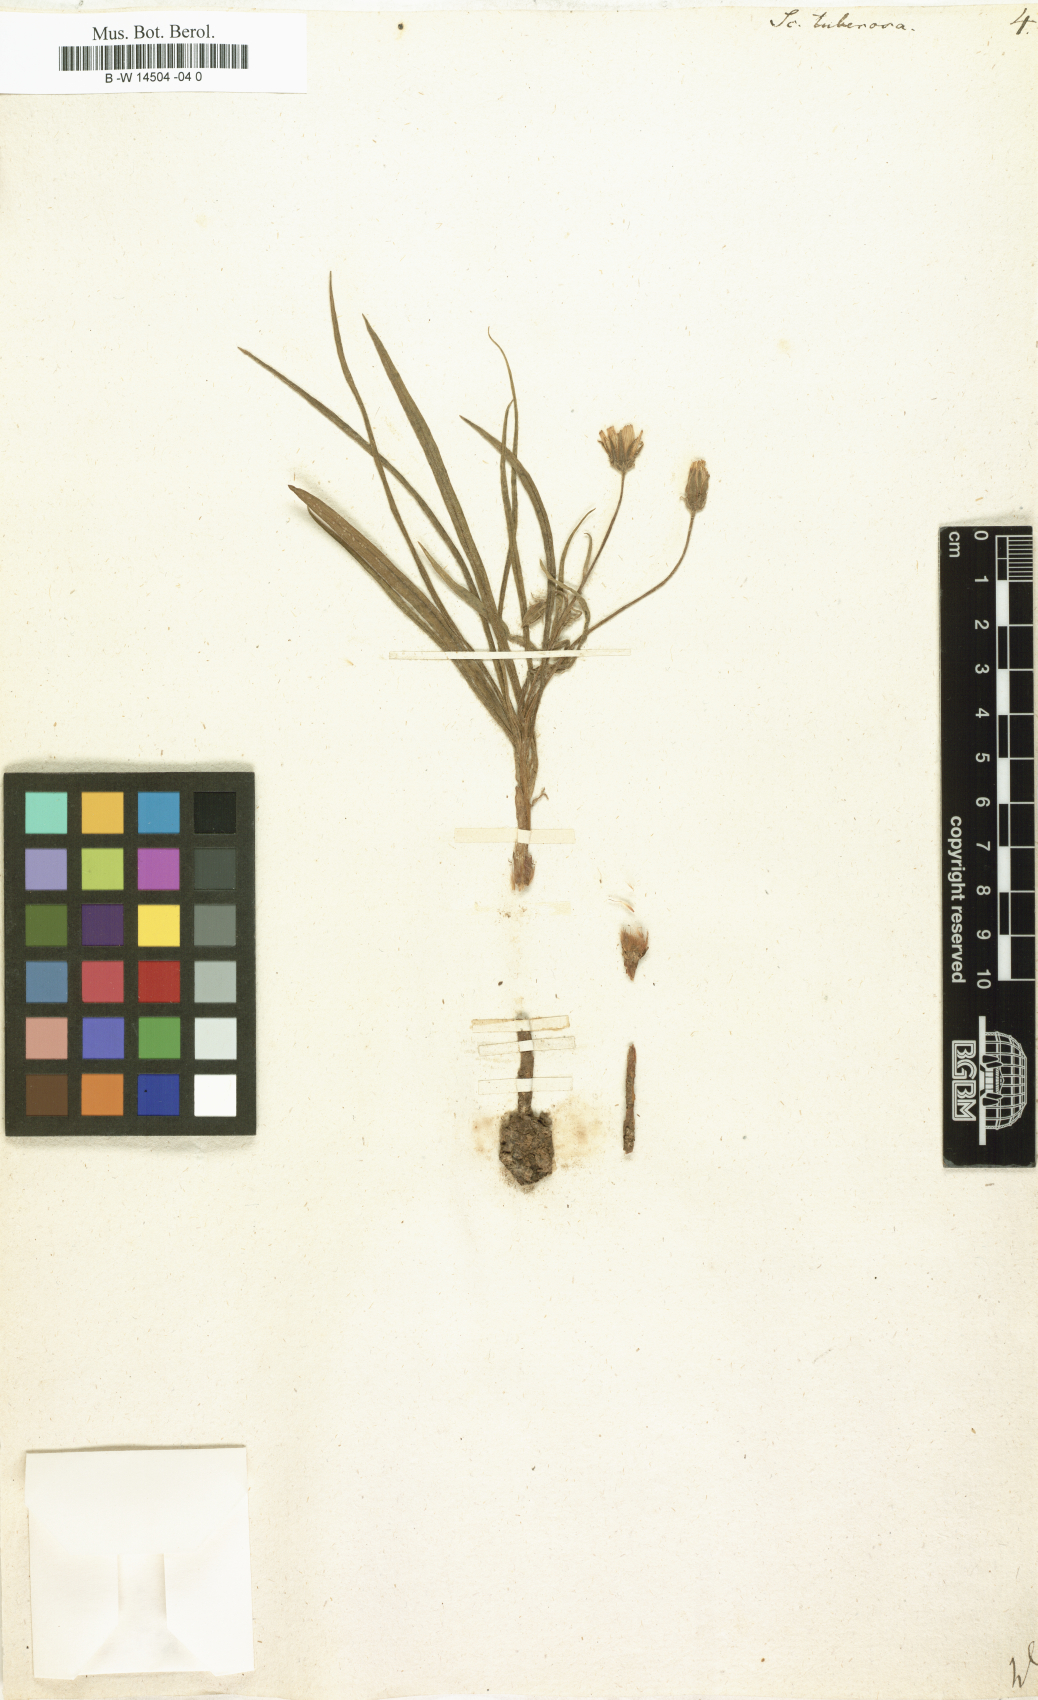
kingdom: Plantae
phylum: Tracheophyta
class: Magnoliopsida
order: Asterales
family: Asteraceae
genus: Scorzonera
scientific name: Scorzonera tuberosa
